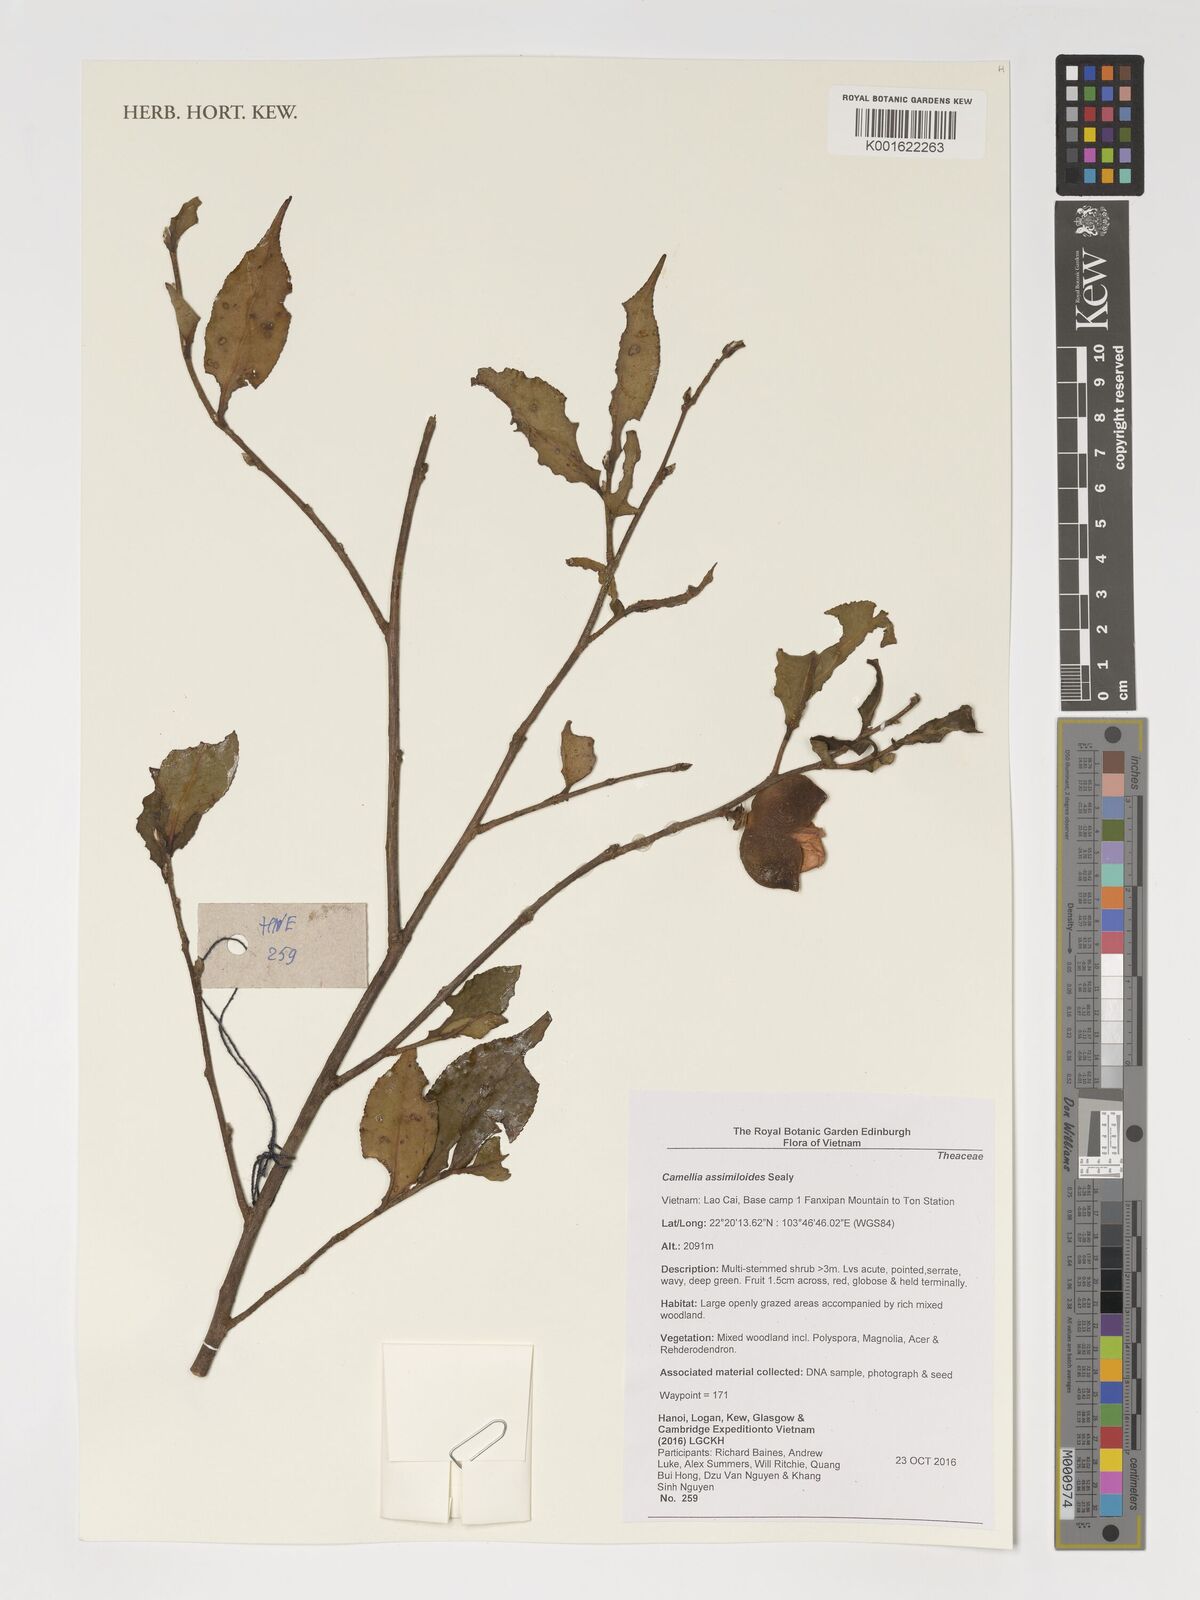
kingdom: Plantae
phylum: Tracheophyta
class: Magnoliopsida
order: Ericales
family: Theaceae
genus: Camellia
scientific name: Camellia assimiloides
